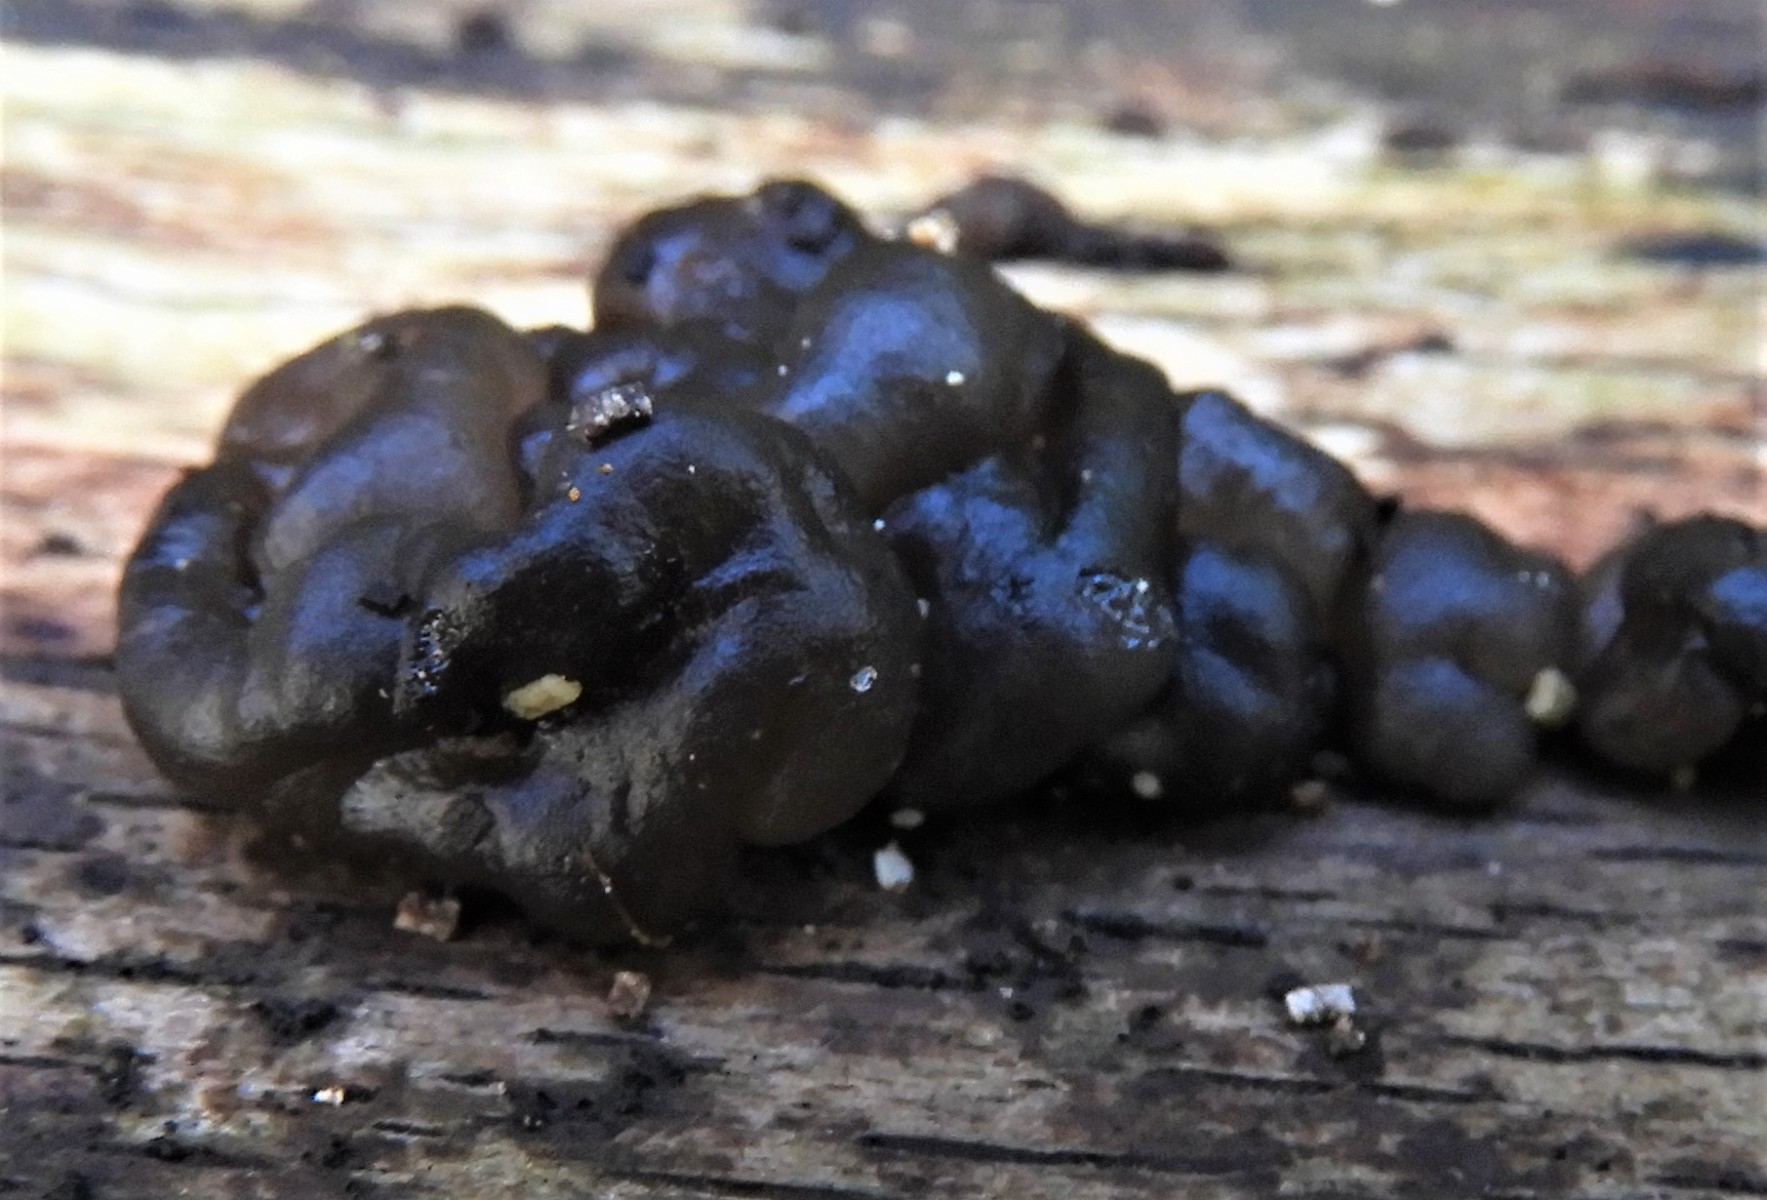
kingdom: Fungi
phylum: Basidiomycota
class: Agaricomycetes
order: Auriculariales
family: Auriculariaceae
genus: Exidia
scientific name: Exidia nigricans
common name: almindelig bævretop
